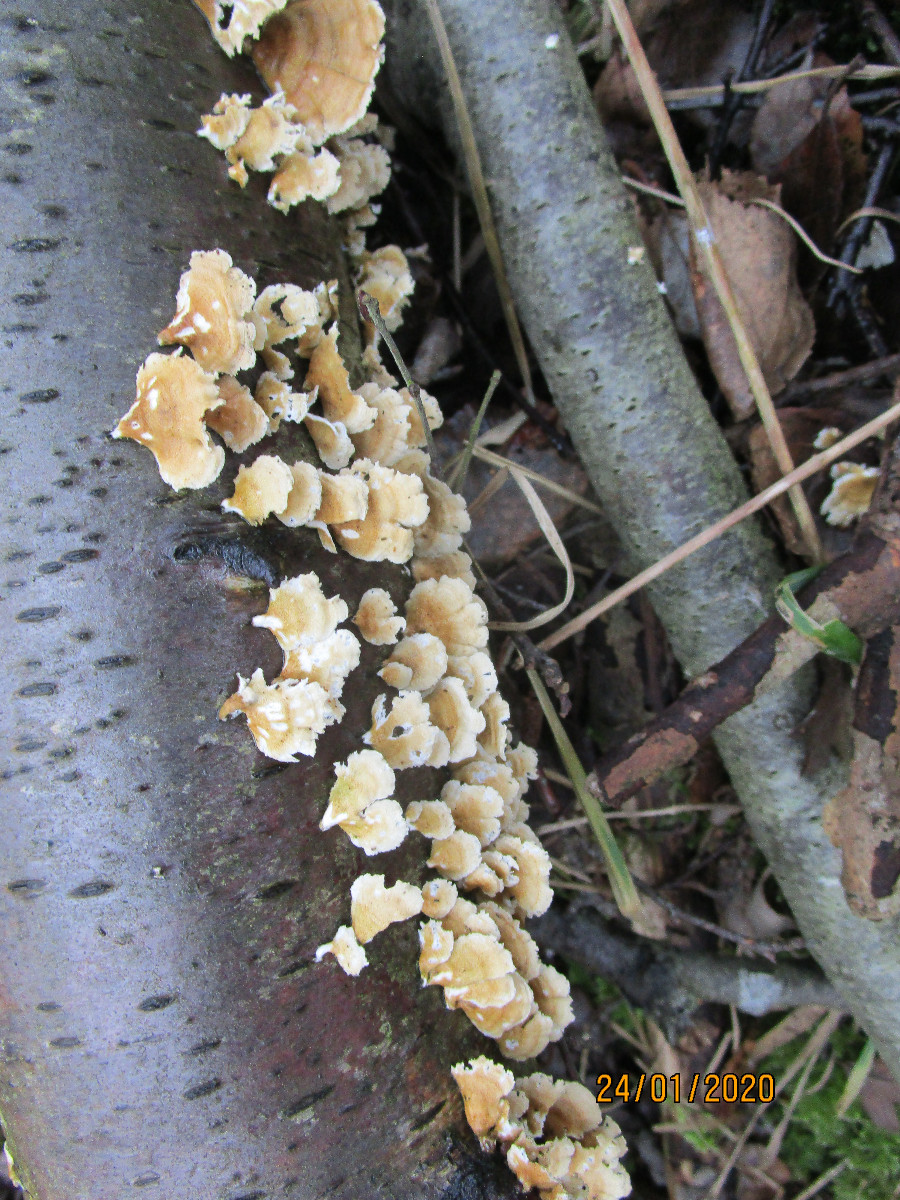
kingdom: Fungi
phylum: Basidiomycota
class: Agaricomycetes
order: Amylocorticiales
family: Amylocorticiaceae
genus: Plicaturopsis
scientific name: Plicaturopsis crispa
